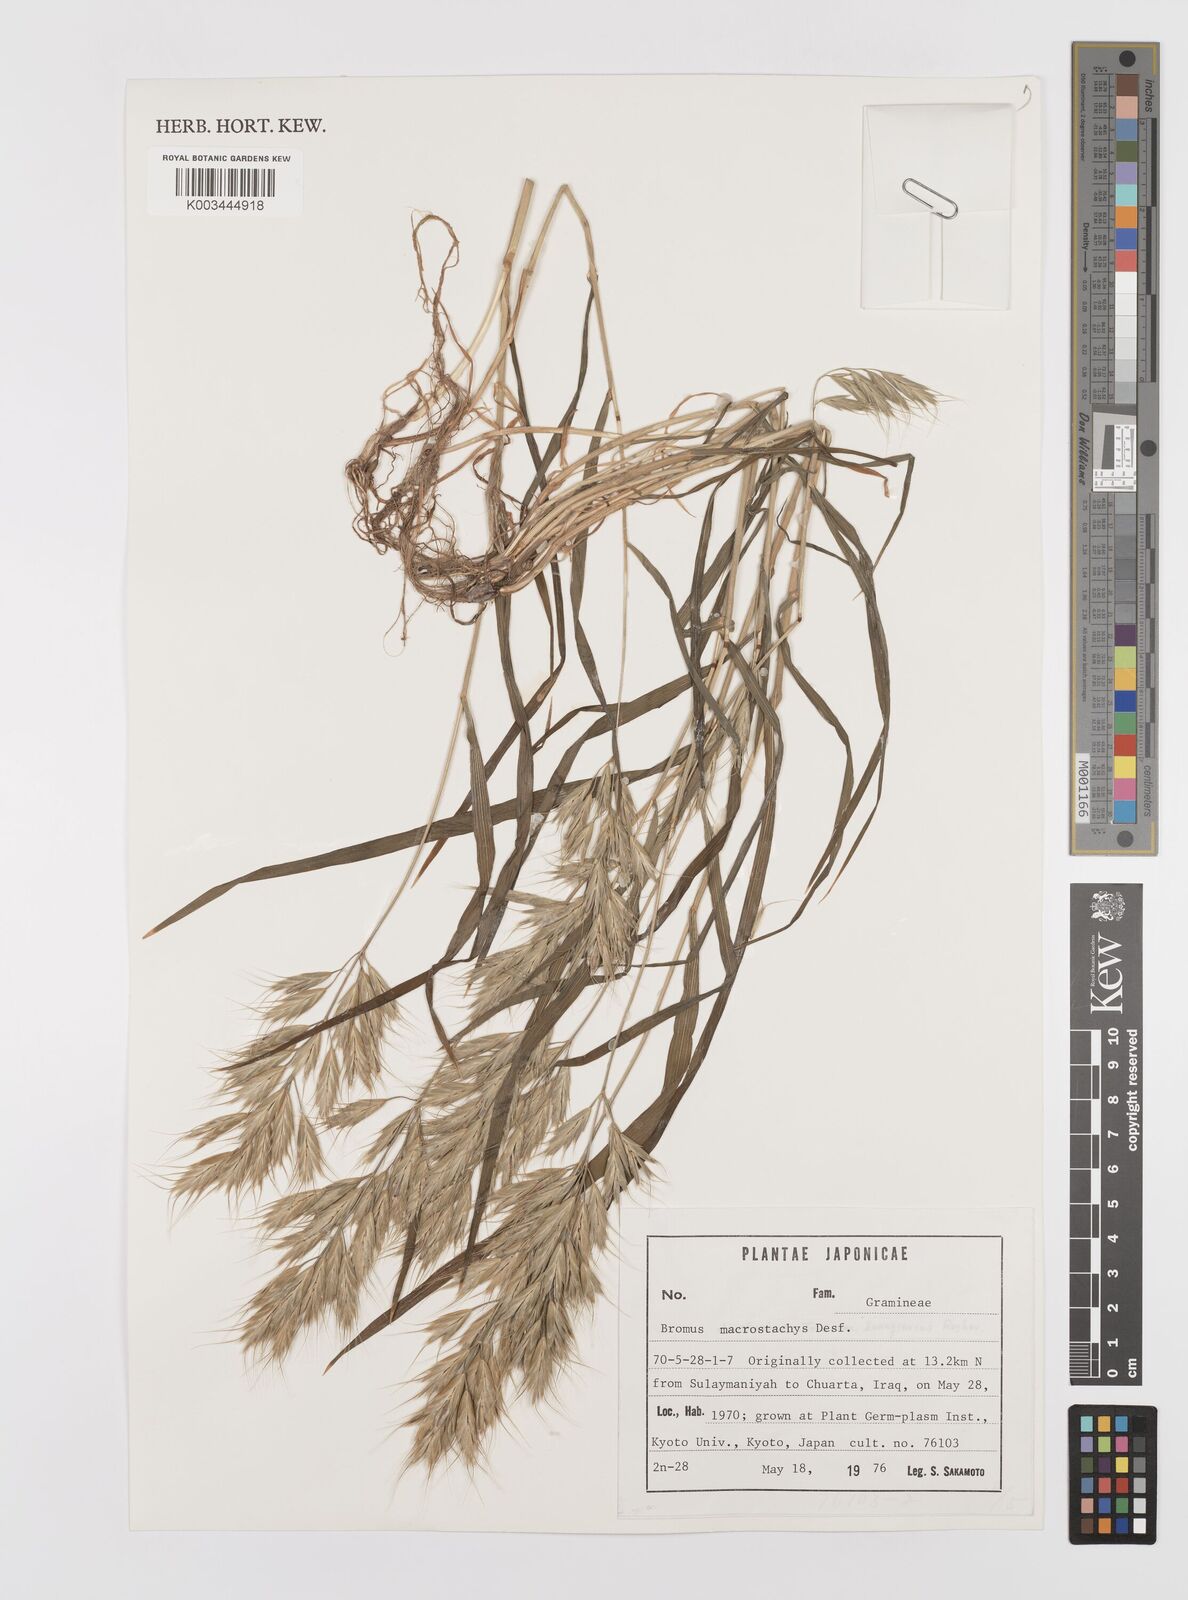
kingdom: Plantae
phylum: Tracheophyta
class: Liliopsida
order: Poales
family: Poaceae
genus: Bromus
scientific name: Bromus lanceolatus
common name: Mediterranean brome
